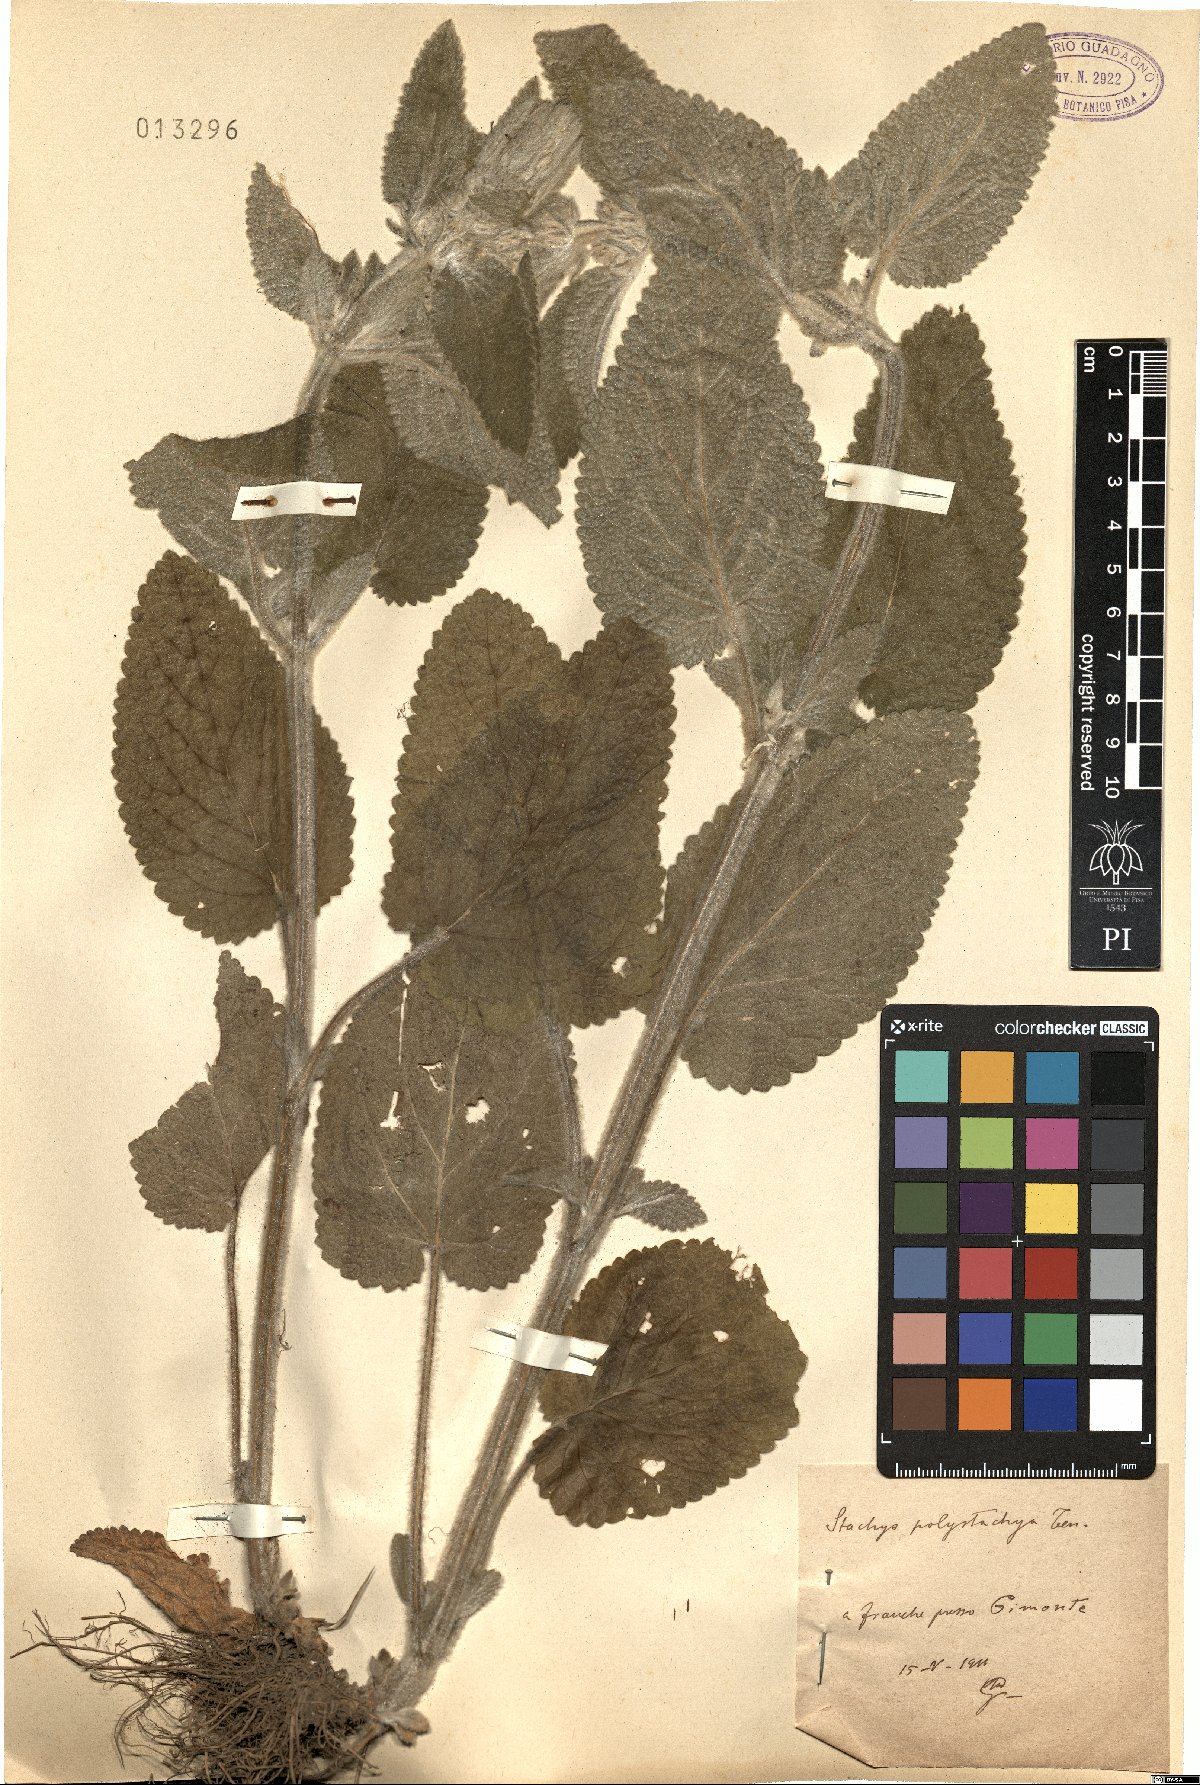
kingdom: Plantae
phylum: Tracheophyta
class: Magnoliopsida
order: Lamiales
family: Lamiaceae
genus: Stachys
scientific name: Stachys germanica
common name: Downy woundwort
